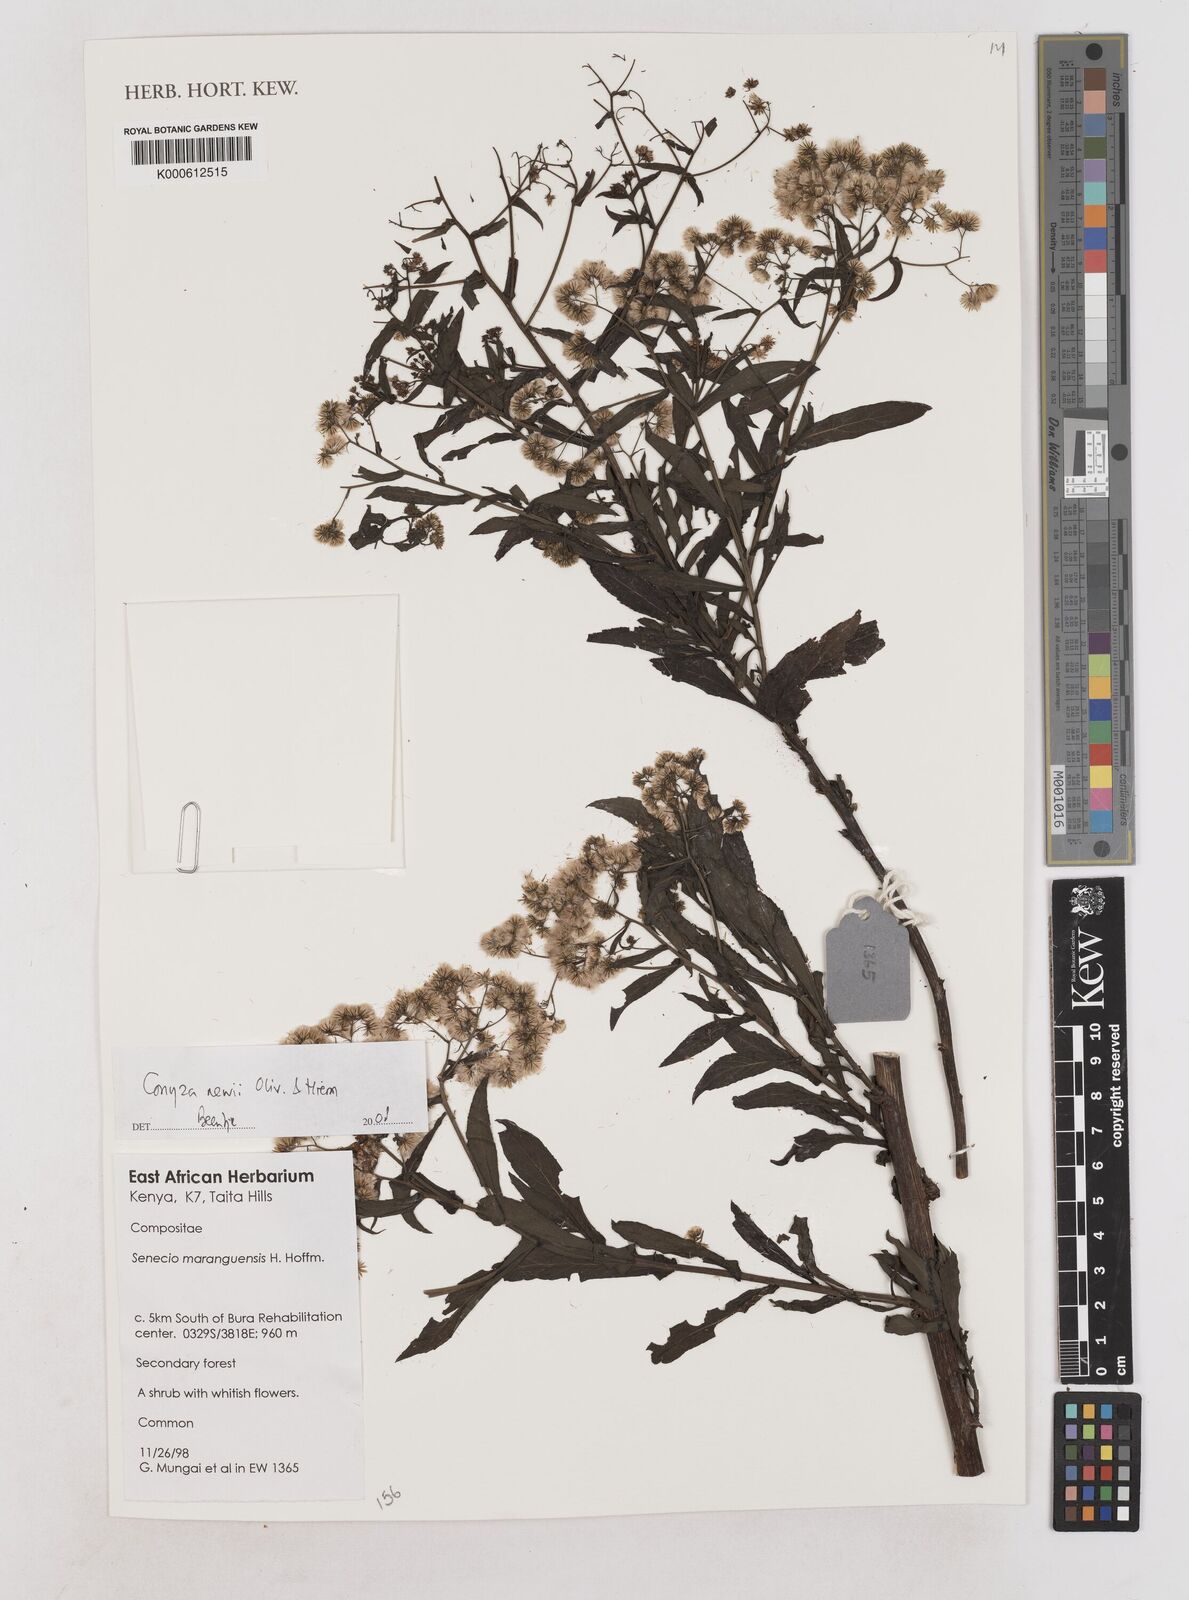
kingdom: Plantae
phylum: Tracheophyta
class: Magnoliopsida
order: Asterales
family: Asteraceae
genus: Conyza
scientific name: Conyza newii
